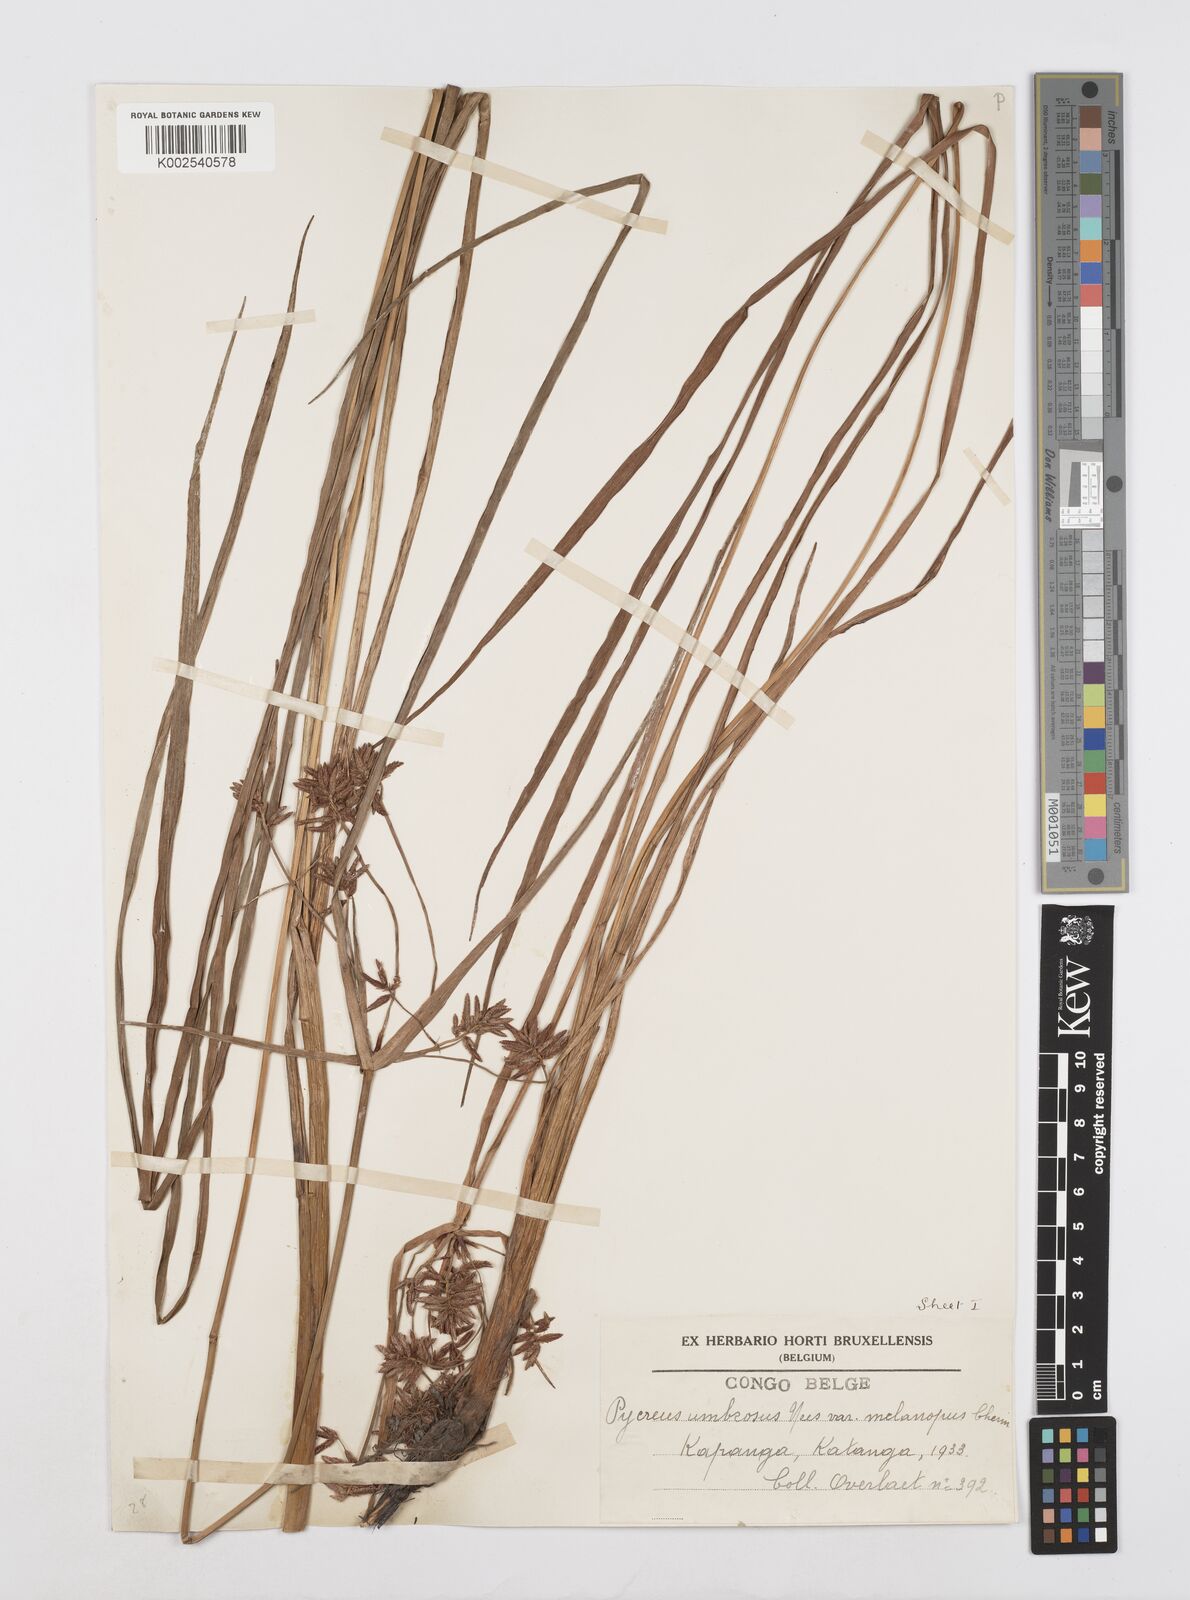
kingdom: Plantae
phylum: Tracheophyta
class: Liliopsida
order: Poales
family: Cyperaceae
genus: Cyperus
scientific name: Cyperus nitidus
